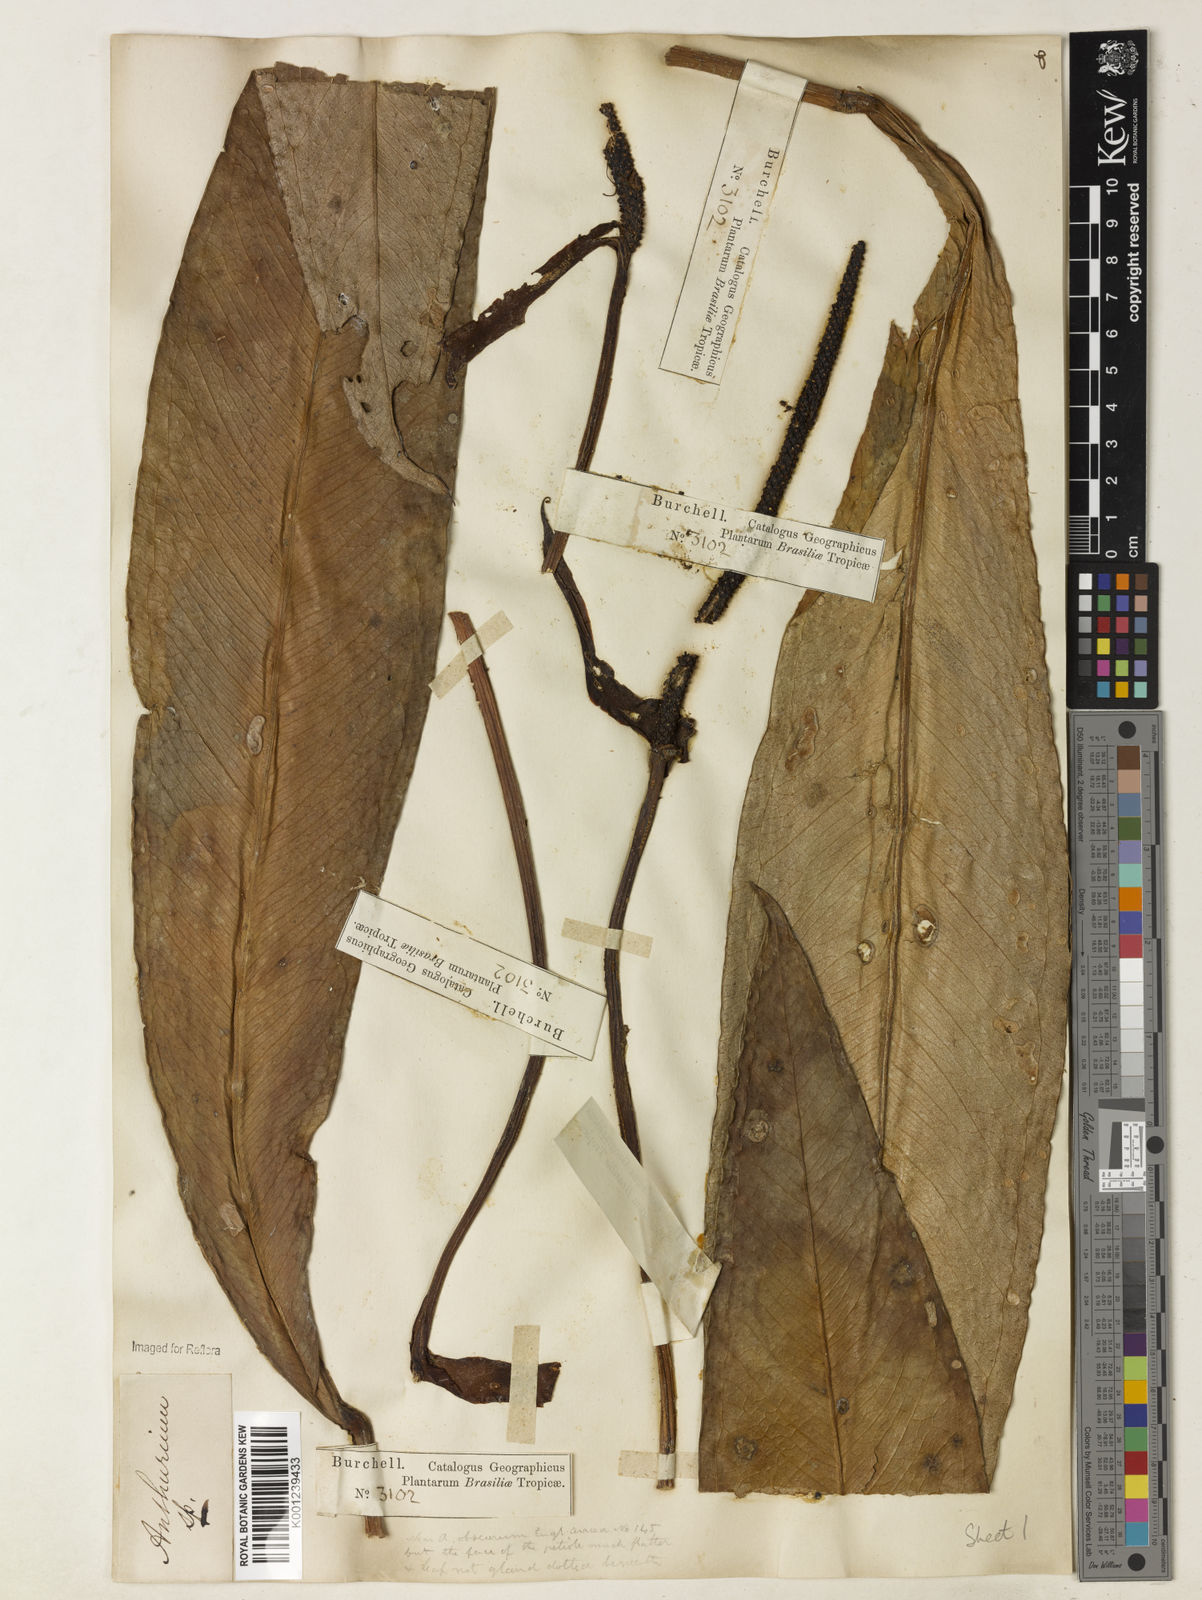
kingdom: Plantae
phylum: Tracheophyta
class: Liliopsida
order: Alismatales
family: Araceae
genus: Anthurium
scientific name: Anthurium harrisii
